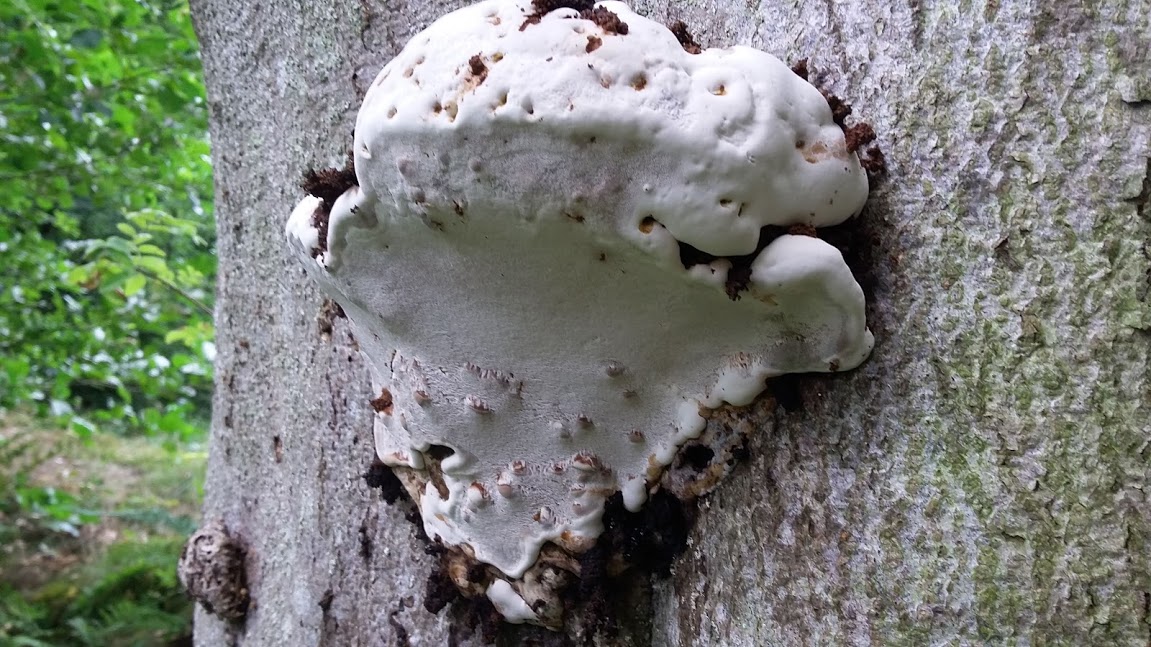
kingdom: Fungi
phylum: Basidiomycota
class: Agaricomycetes
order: Polyporales
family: Polyporaceae
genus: Ganoderma
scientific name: Ganoderma applanatum
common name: flad lakporesvamp
